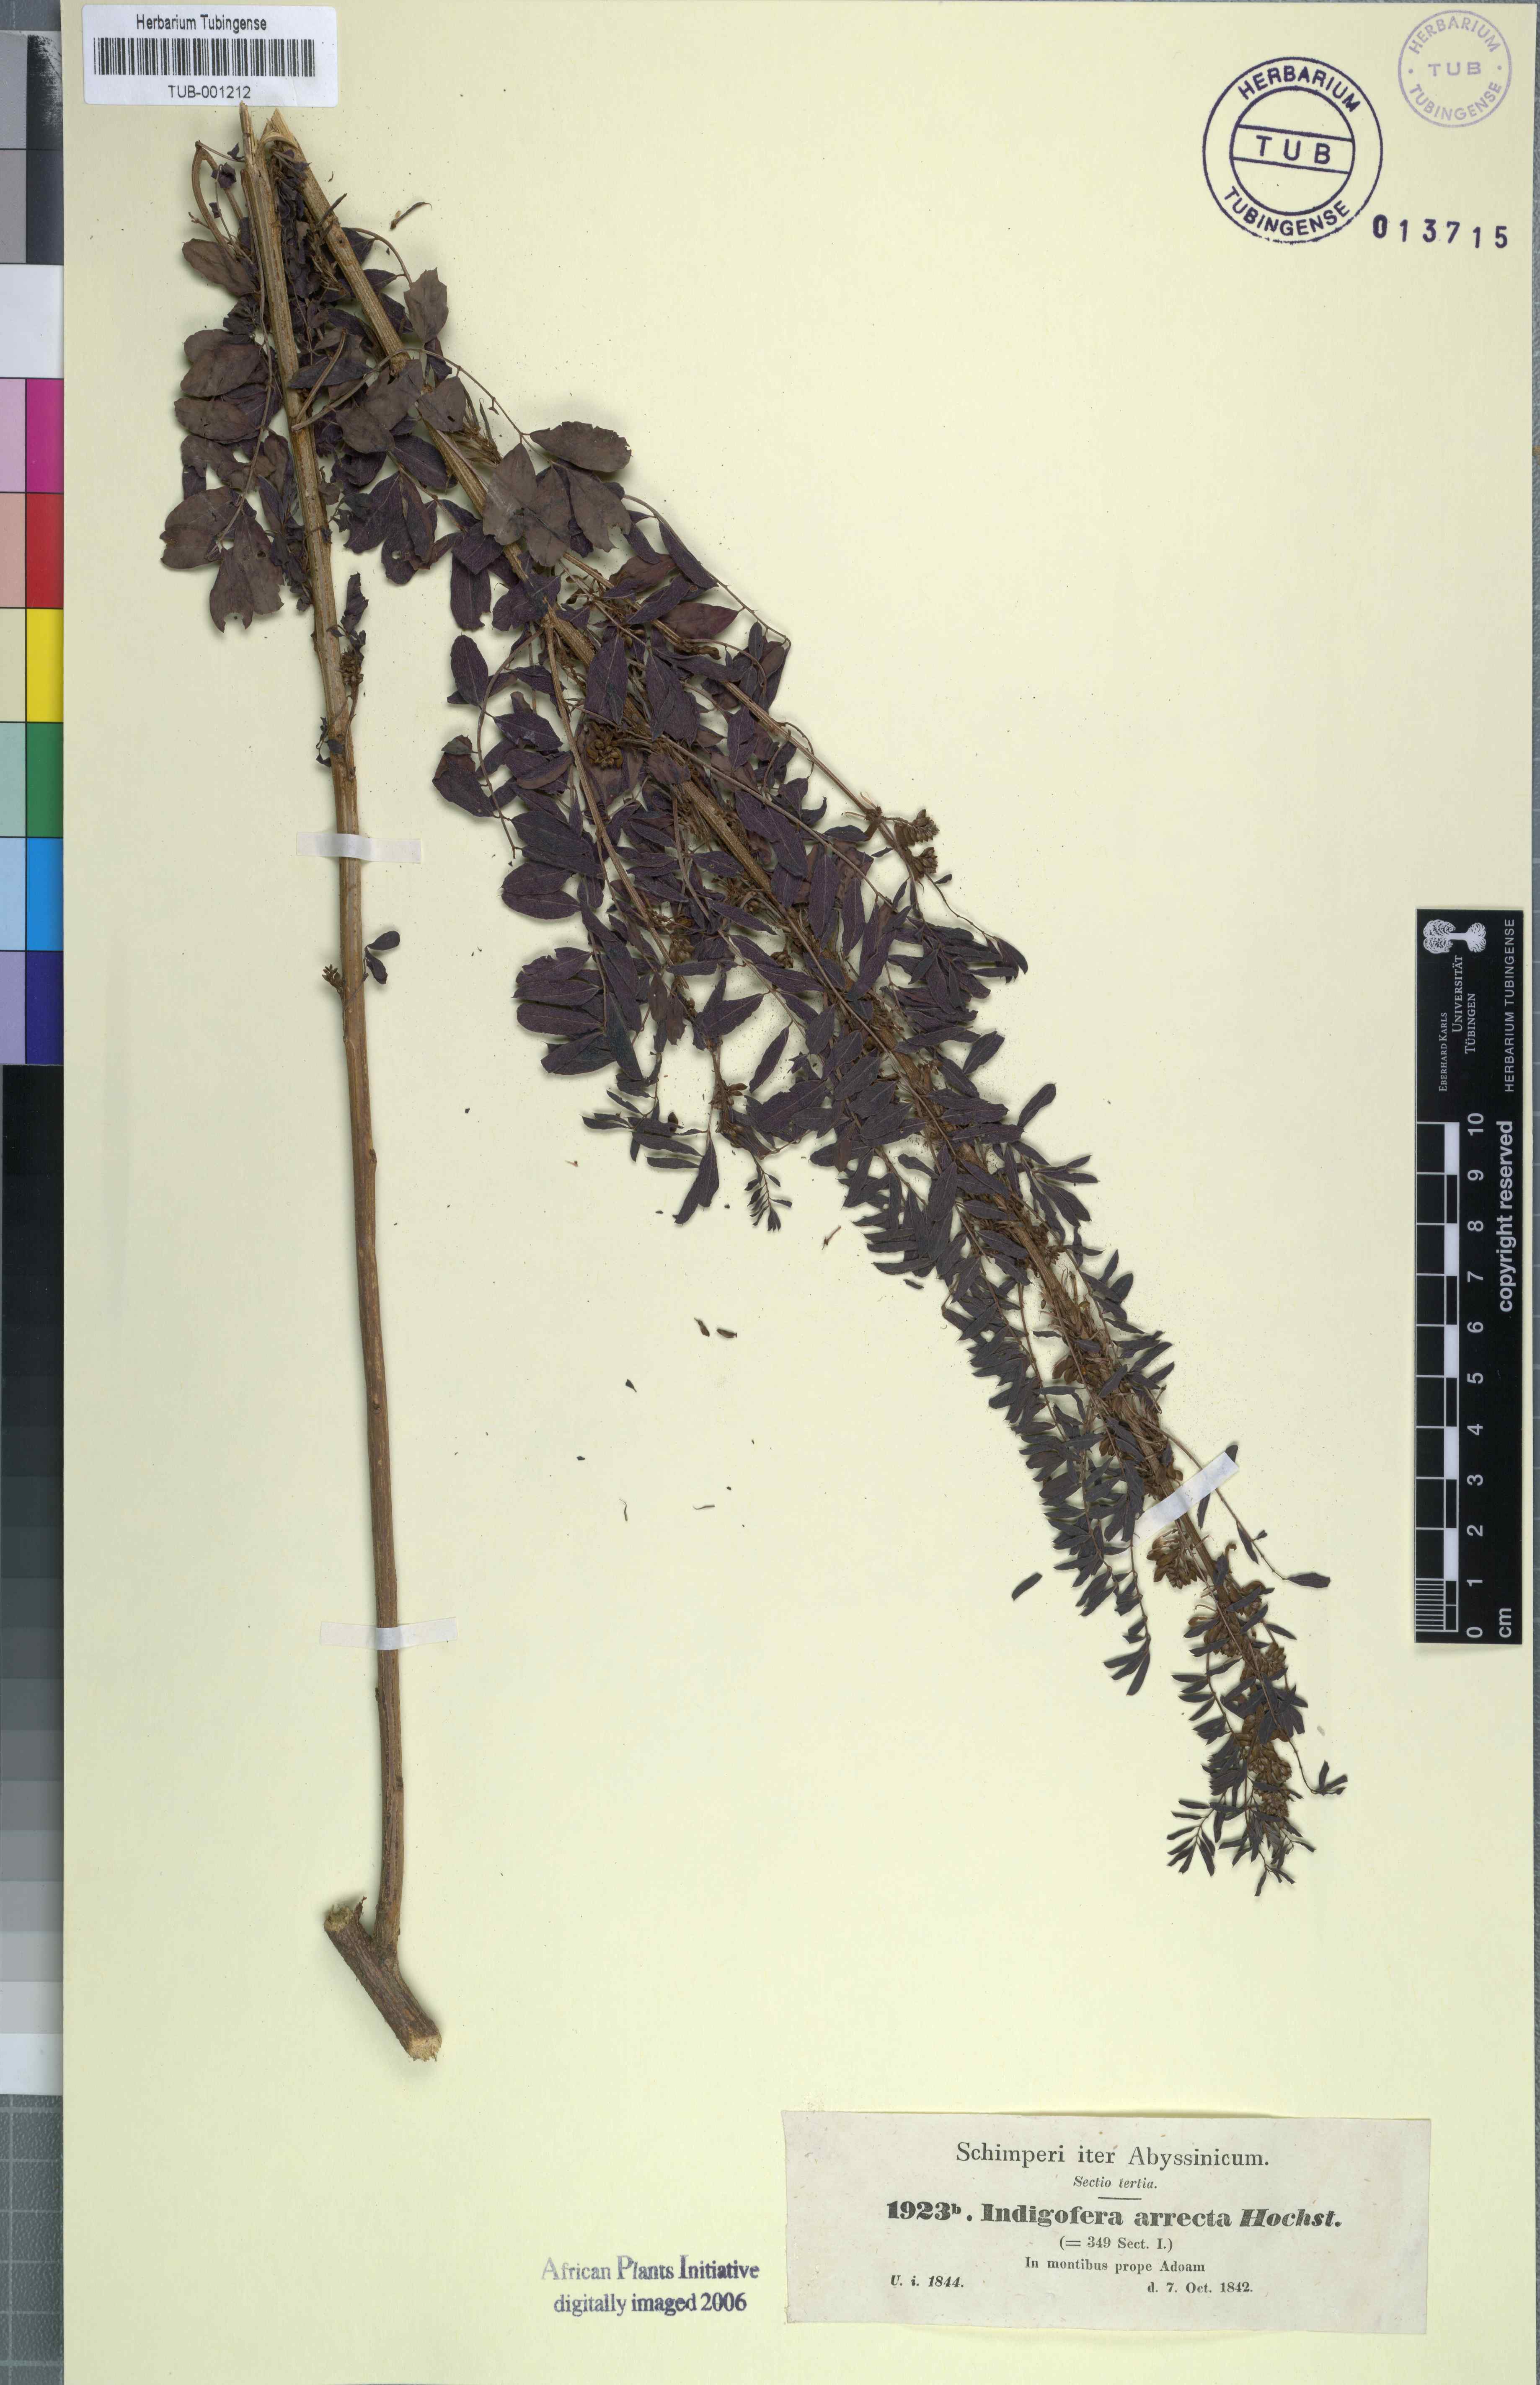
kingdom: Plantae
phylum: Tracheophyta
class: Magnoliopsida
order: Fabales
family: Fabaceae
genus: Indigofera
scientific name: Indigofera arrecta
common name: Bengal indigo
